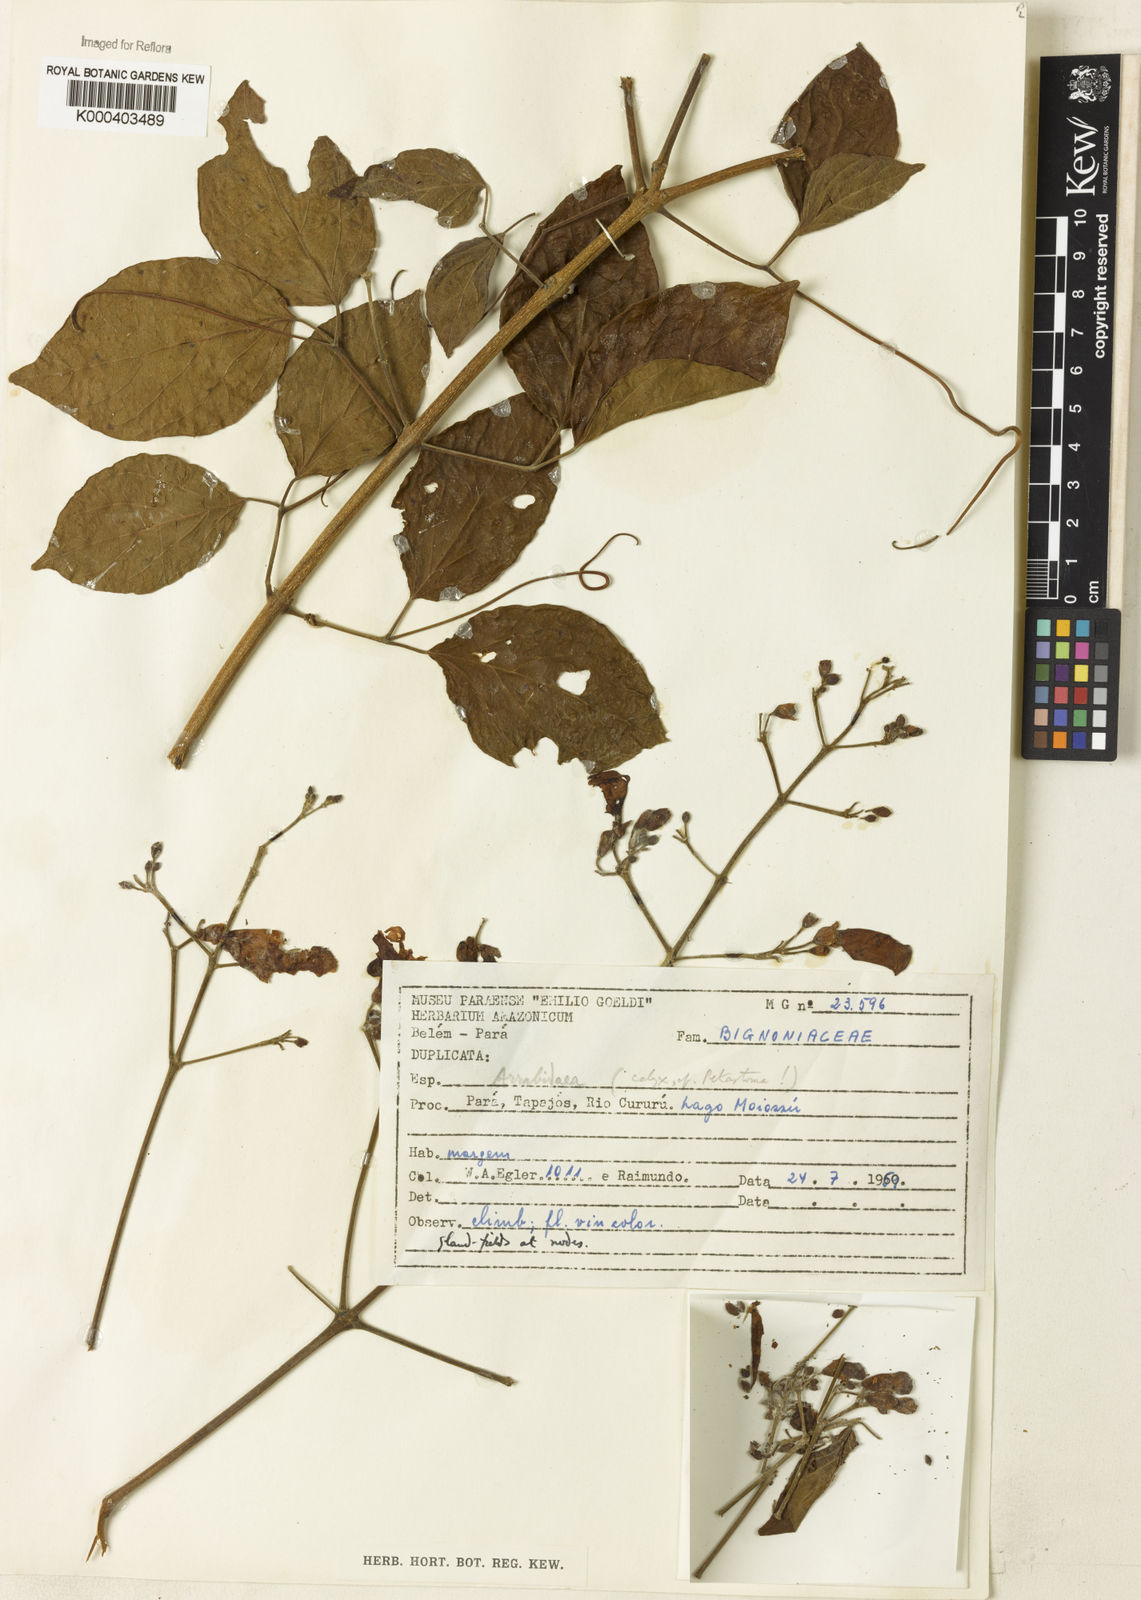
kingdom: Plantae
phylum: Tracheophyta
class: Magnoliopsida
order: Rosales
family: Rhamnaceae
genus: Arrabidaea
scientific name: Arrabidaea
